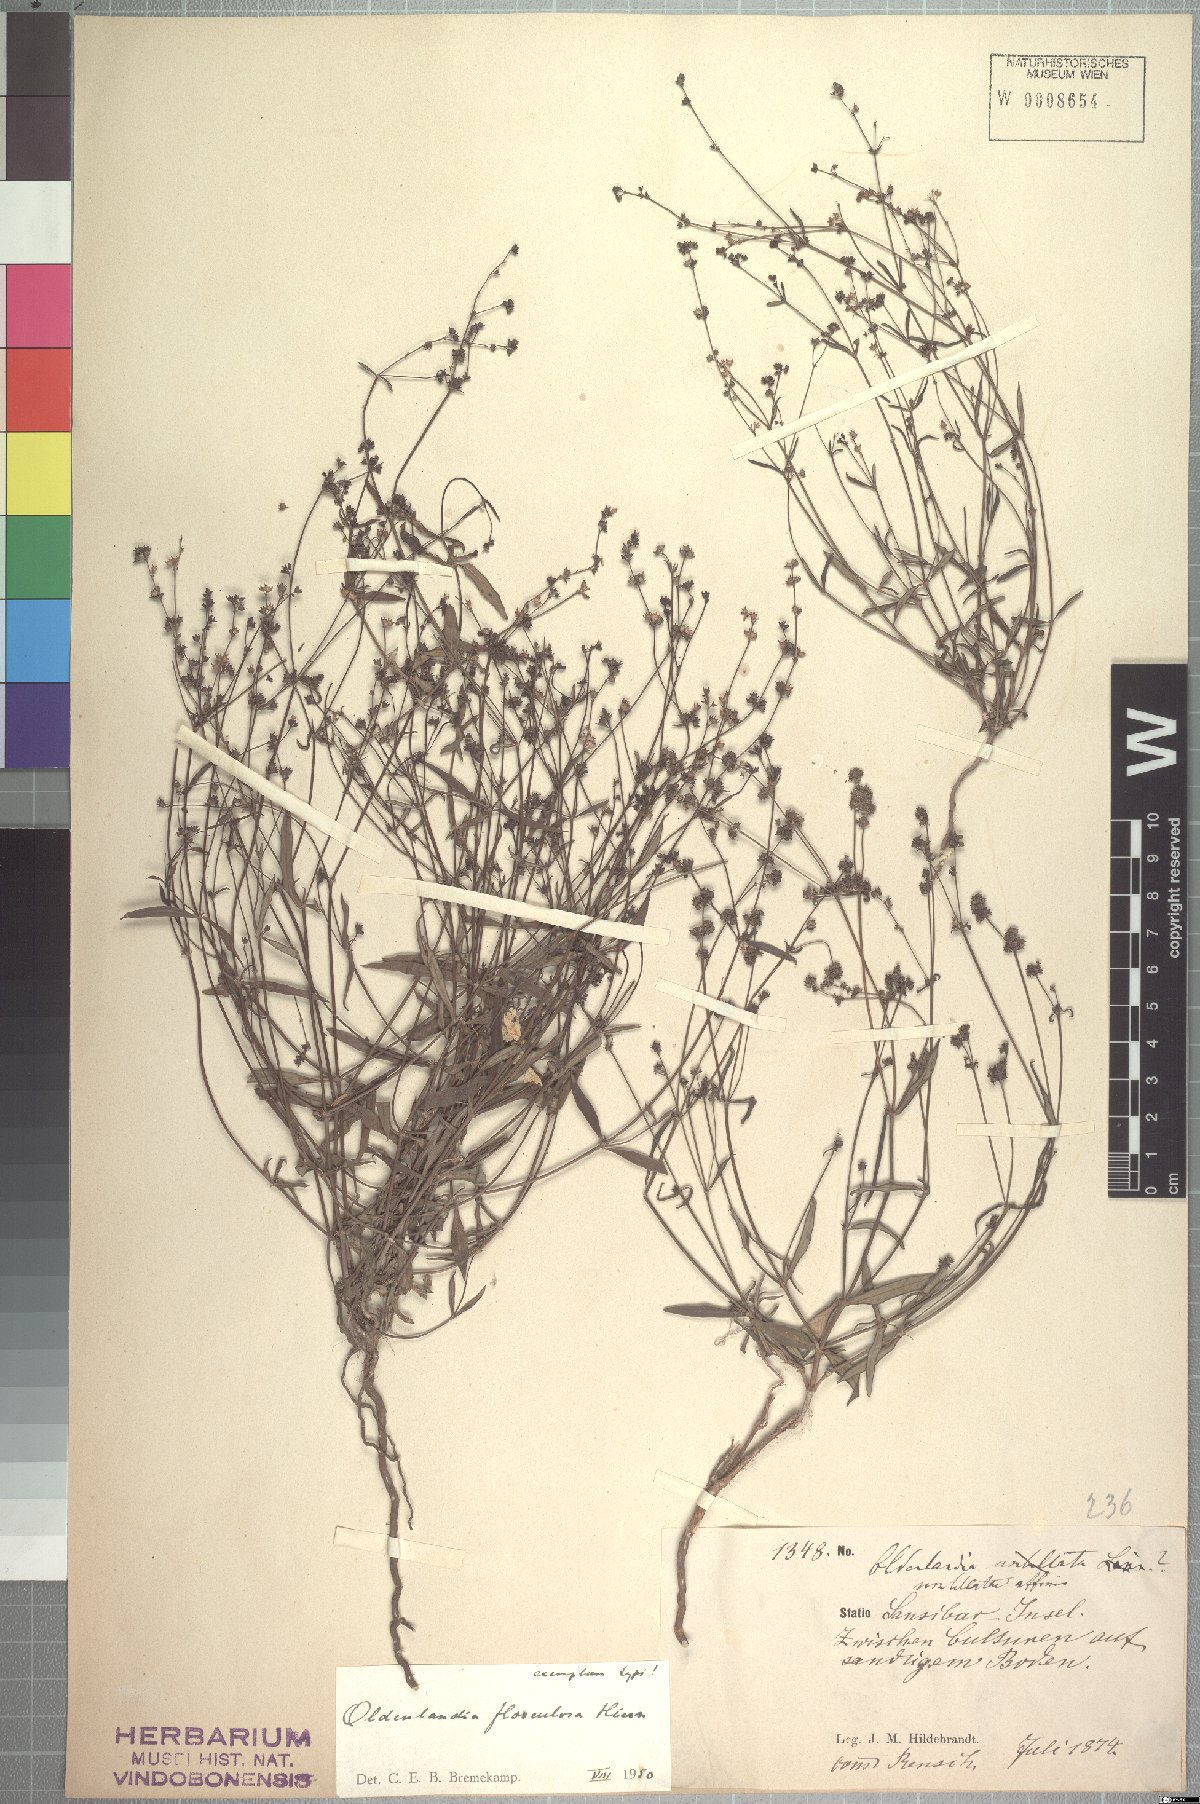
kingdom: Plantae
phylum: Tracheophyta
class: Magnoliopsida
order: Gentianales
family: Rubiaceae
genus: Oldenlandia
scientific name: Oldenlandia flosculosa
